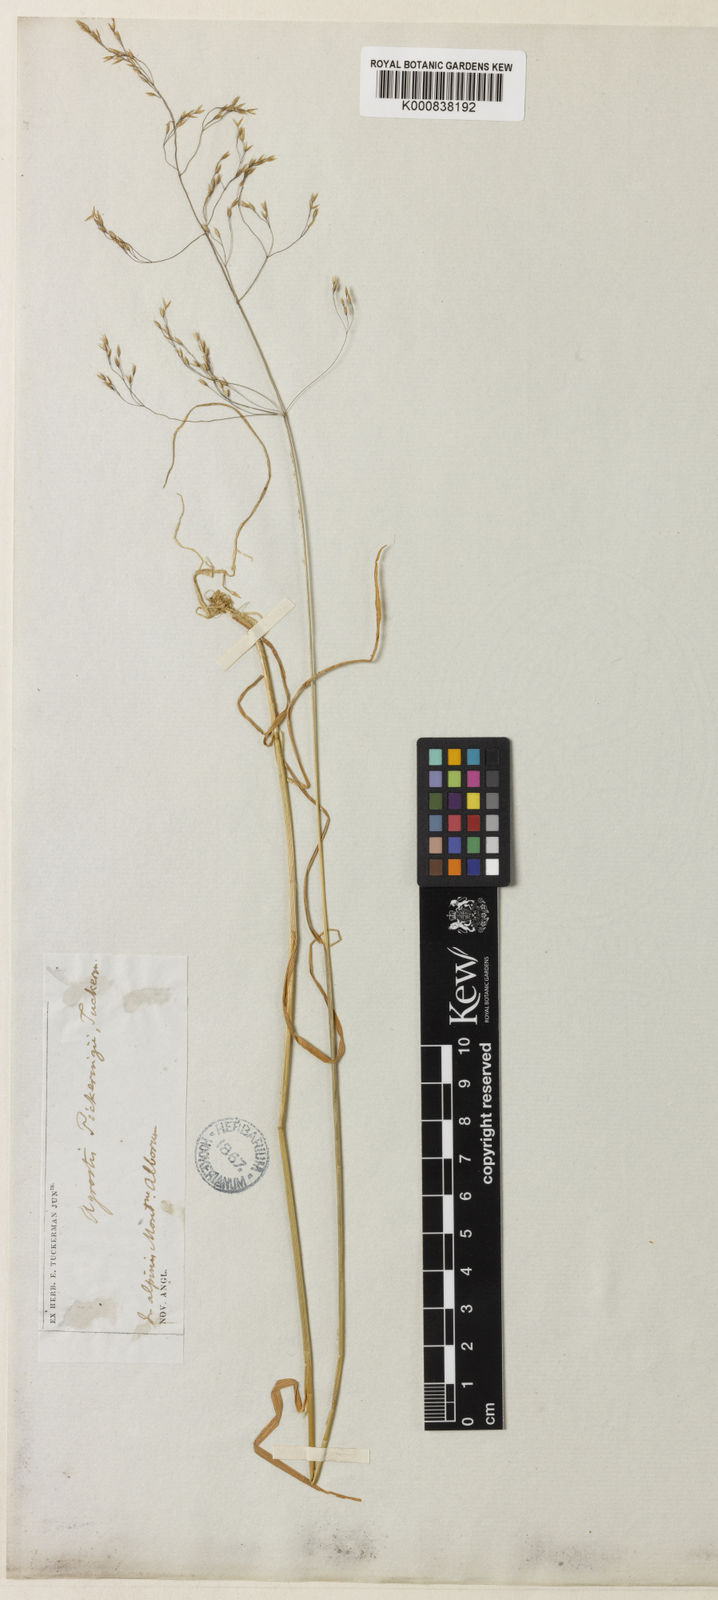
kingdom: Plantae
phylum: Tracheophyta
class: Liliopsida
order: Poales
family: Poaceae
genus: Agrostis
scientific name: Agrostis mertensii
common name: Northern bent
